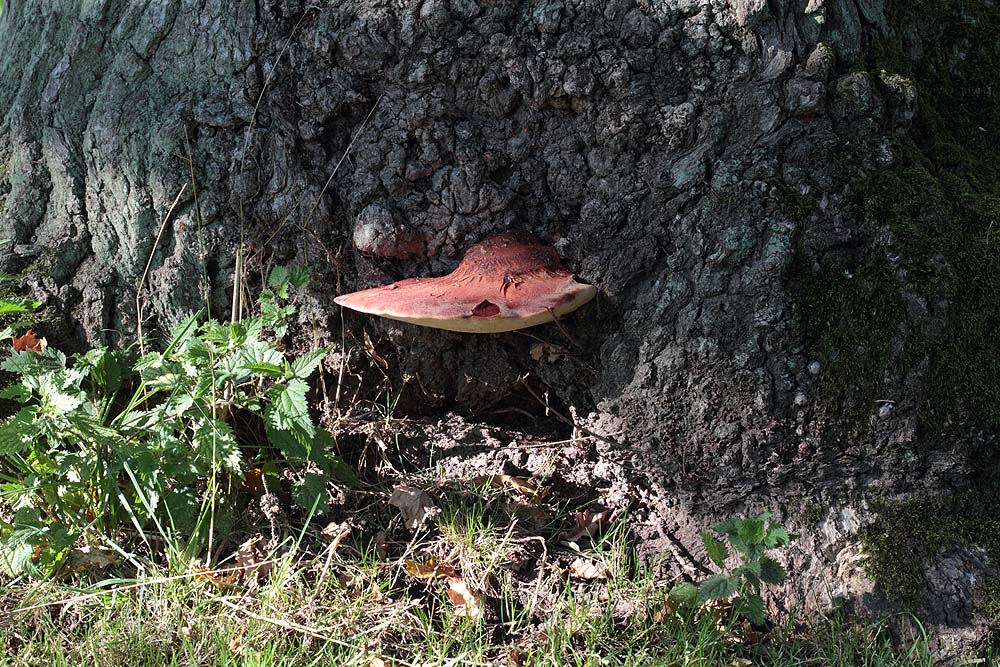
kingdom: Fungi
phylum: Basidiomycota
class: Agaricomycetes
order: Agaricales
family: Fistulinaceae
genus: Fistulina
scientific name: Fistulina hepatica
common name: oksetunge
